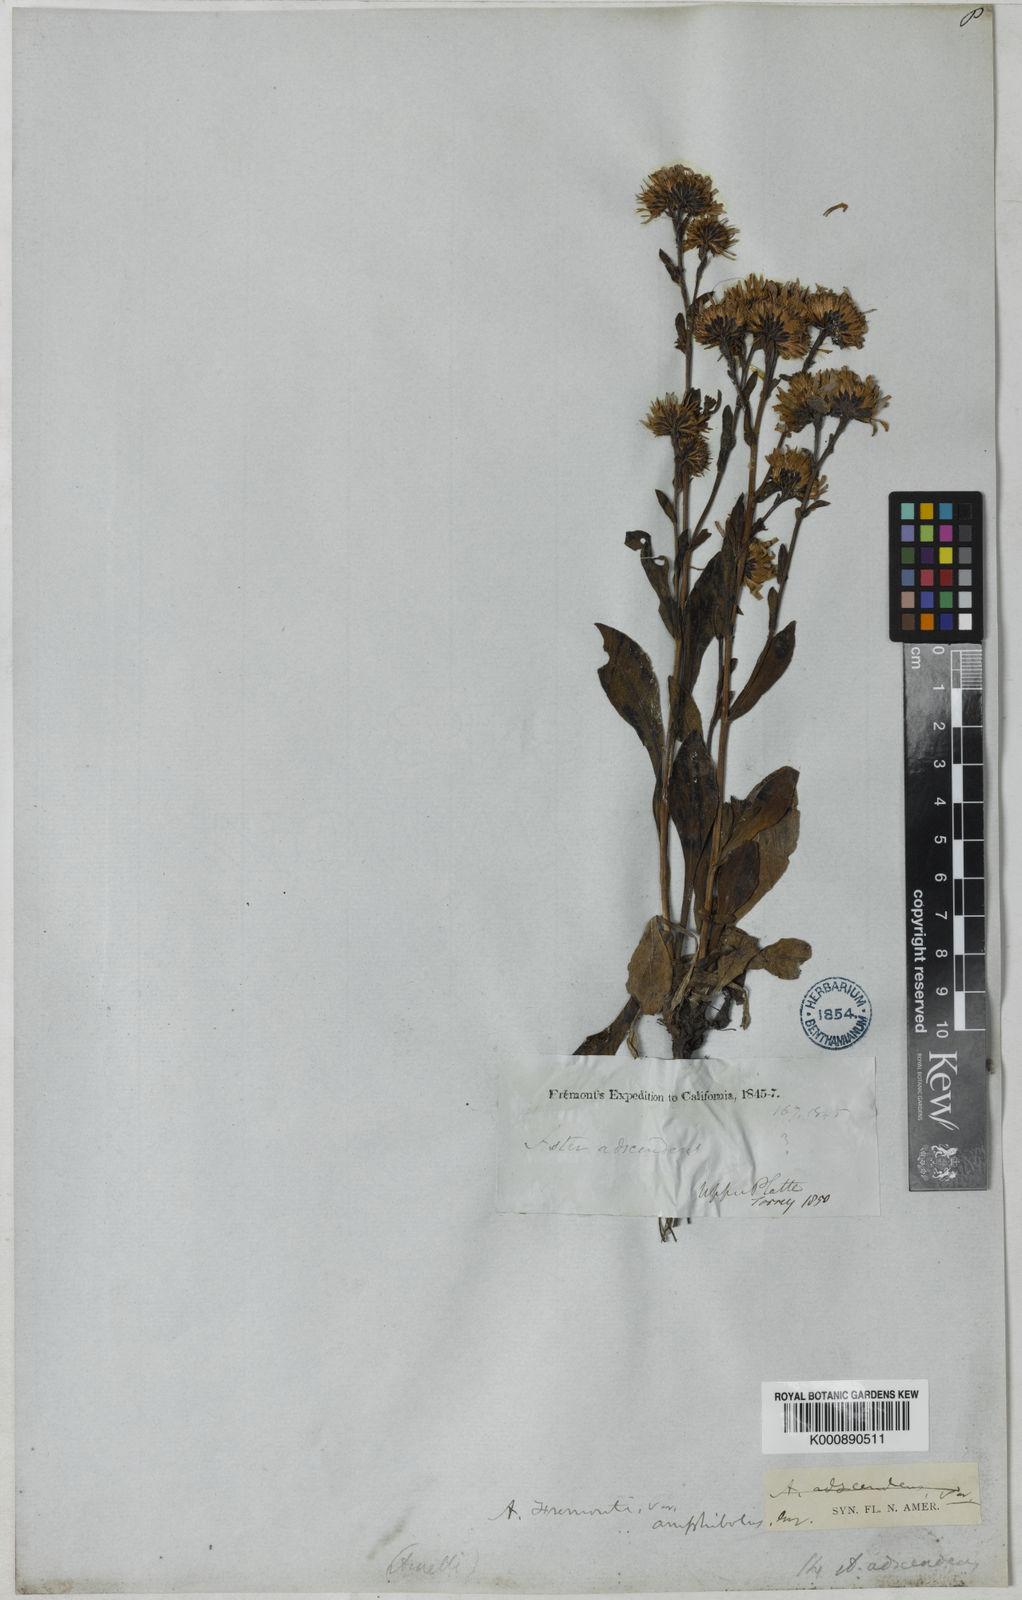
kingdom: Plantae
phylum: Tracheophyta
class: Magnoliopsida
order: Asterales
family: Asteraceae
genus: Symphyotrichum
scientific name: Symphyotrichum spathulatum
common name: Western mountain aster
